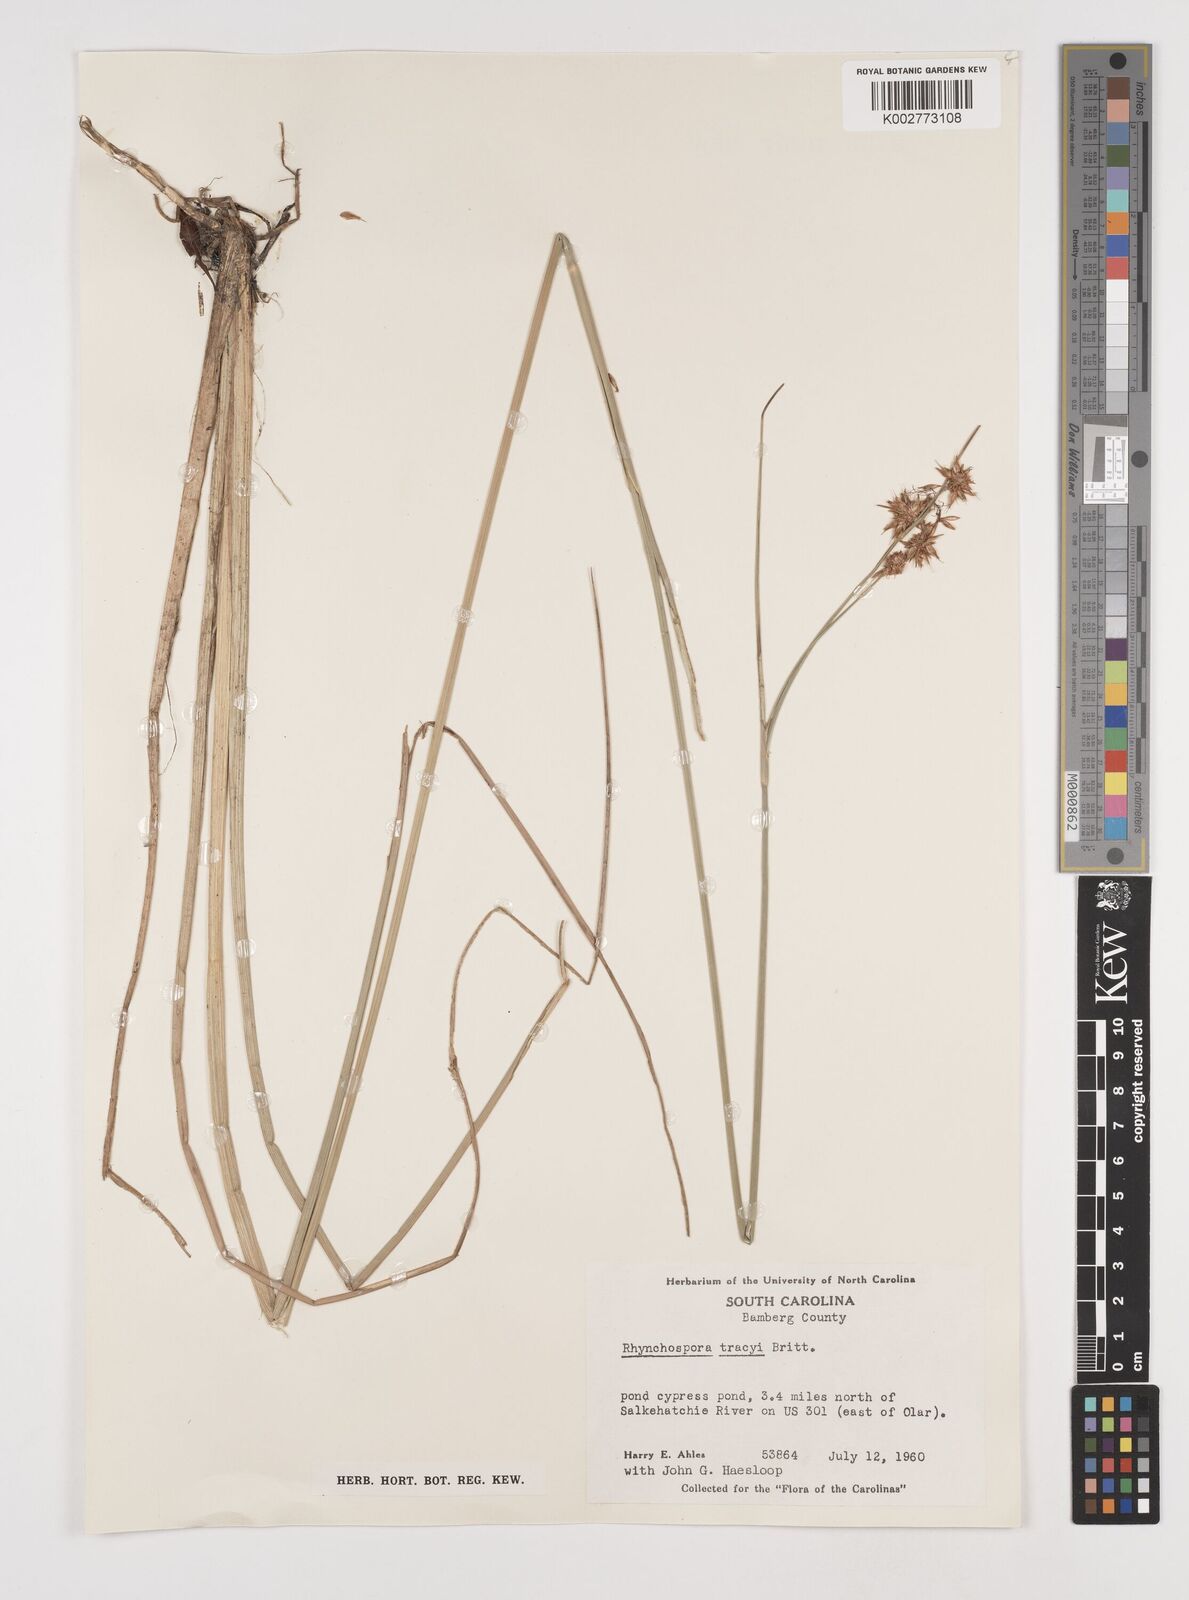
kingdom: Plantae
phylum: Tracheophyta
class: Liliopsida
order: Poales
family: Cyperaceae
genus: Rhynchospora
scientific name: Rhynchospora tracyi
